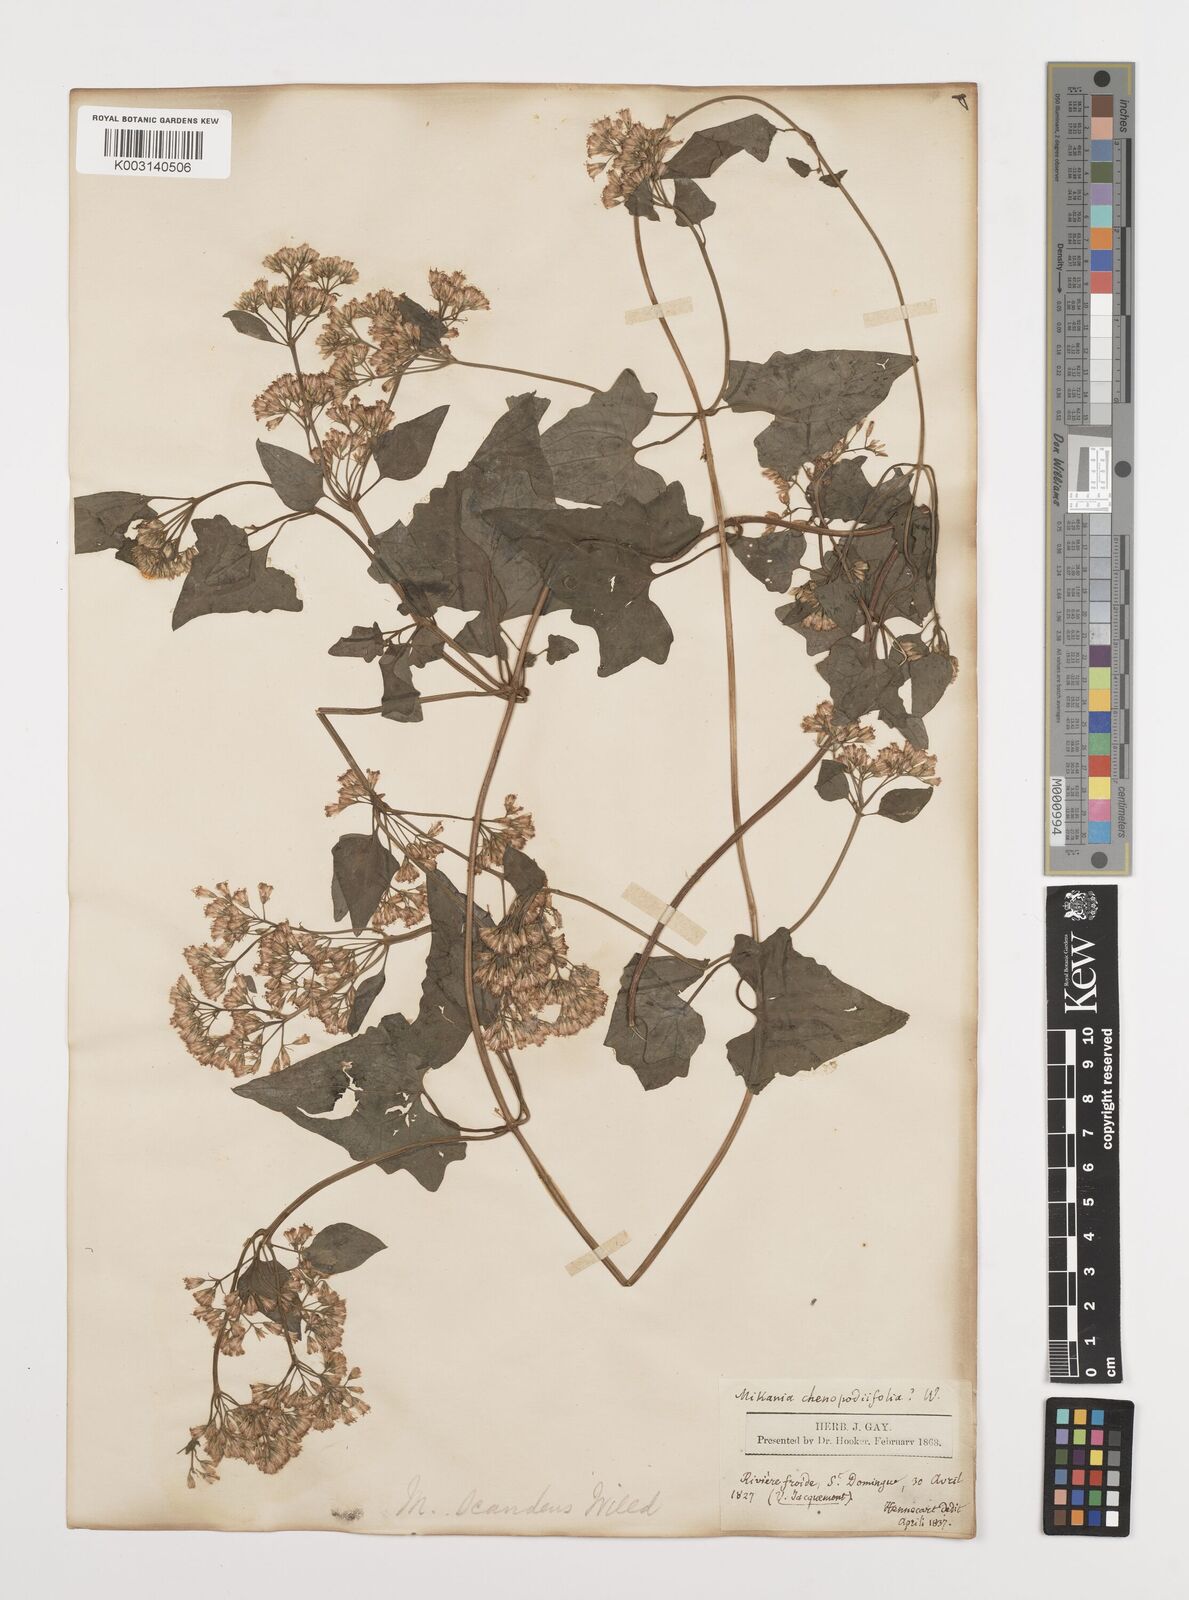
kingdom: Plantae
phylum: Tracheophyta
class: Magnoliopsida
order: Asterales
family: Asteraceae
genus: Mikania
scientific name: Mikania micrantha
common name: Mile-a-minute
